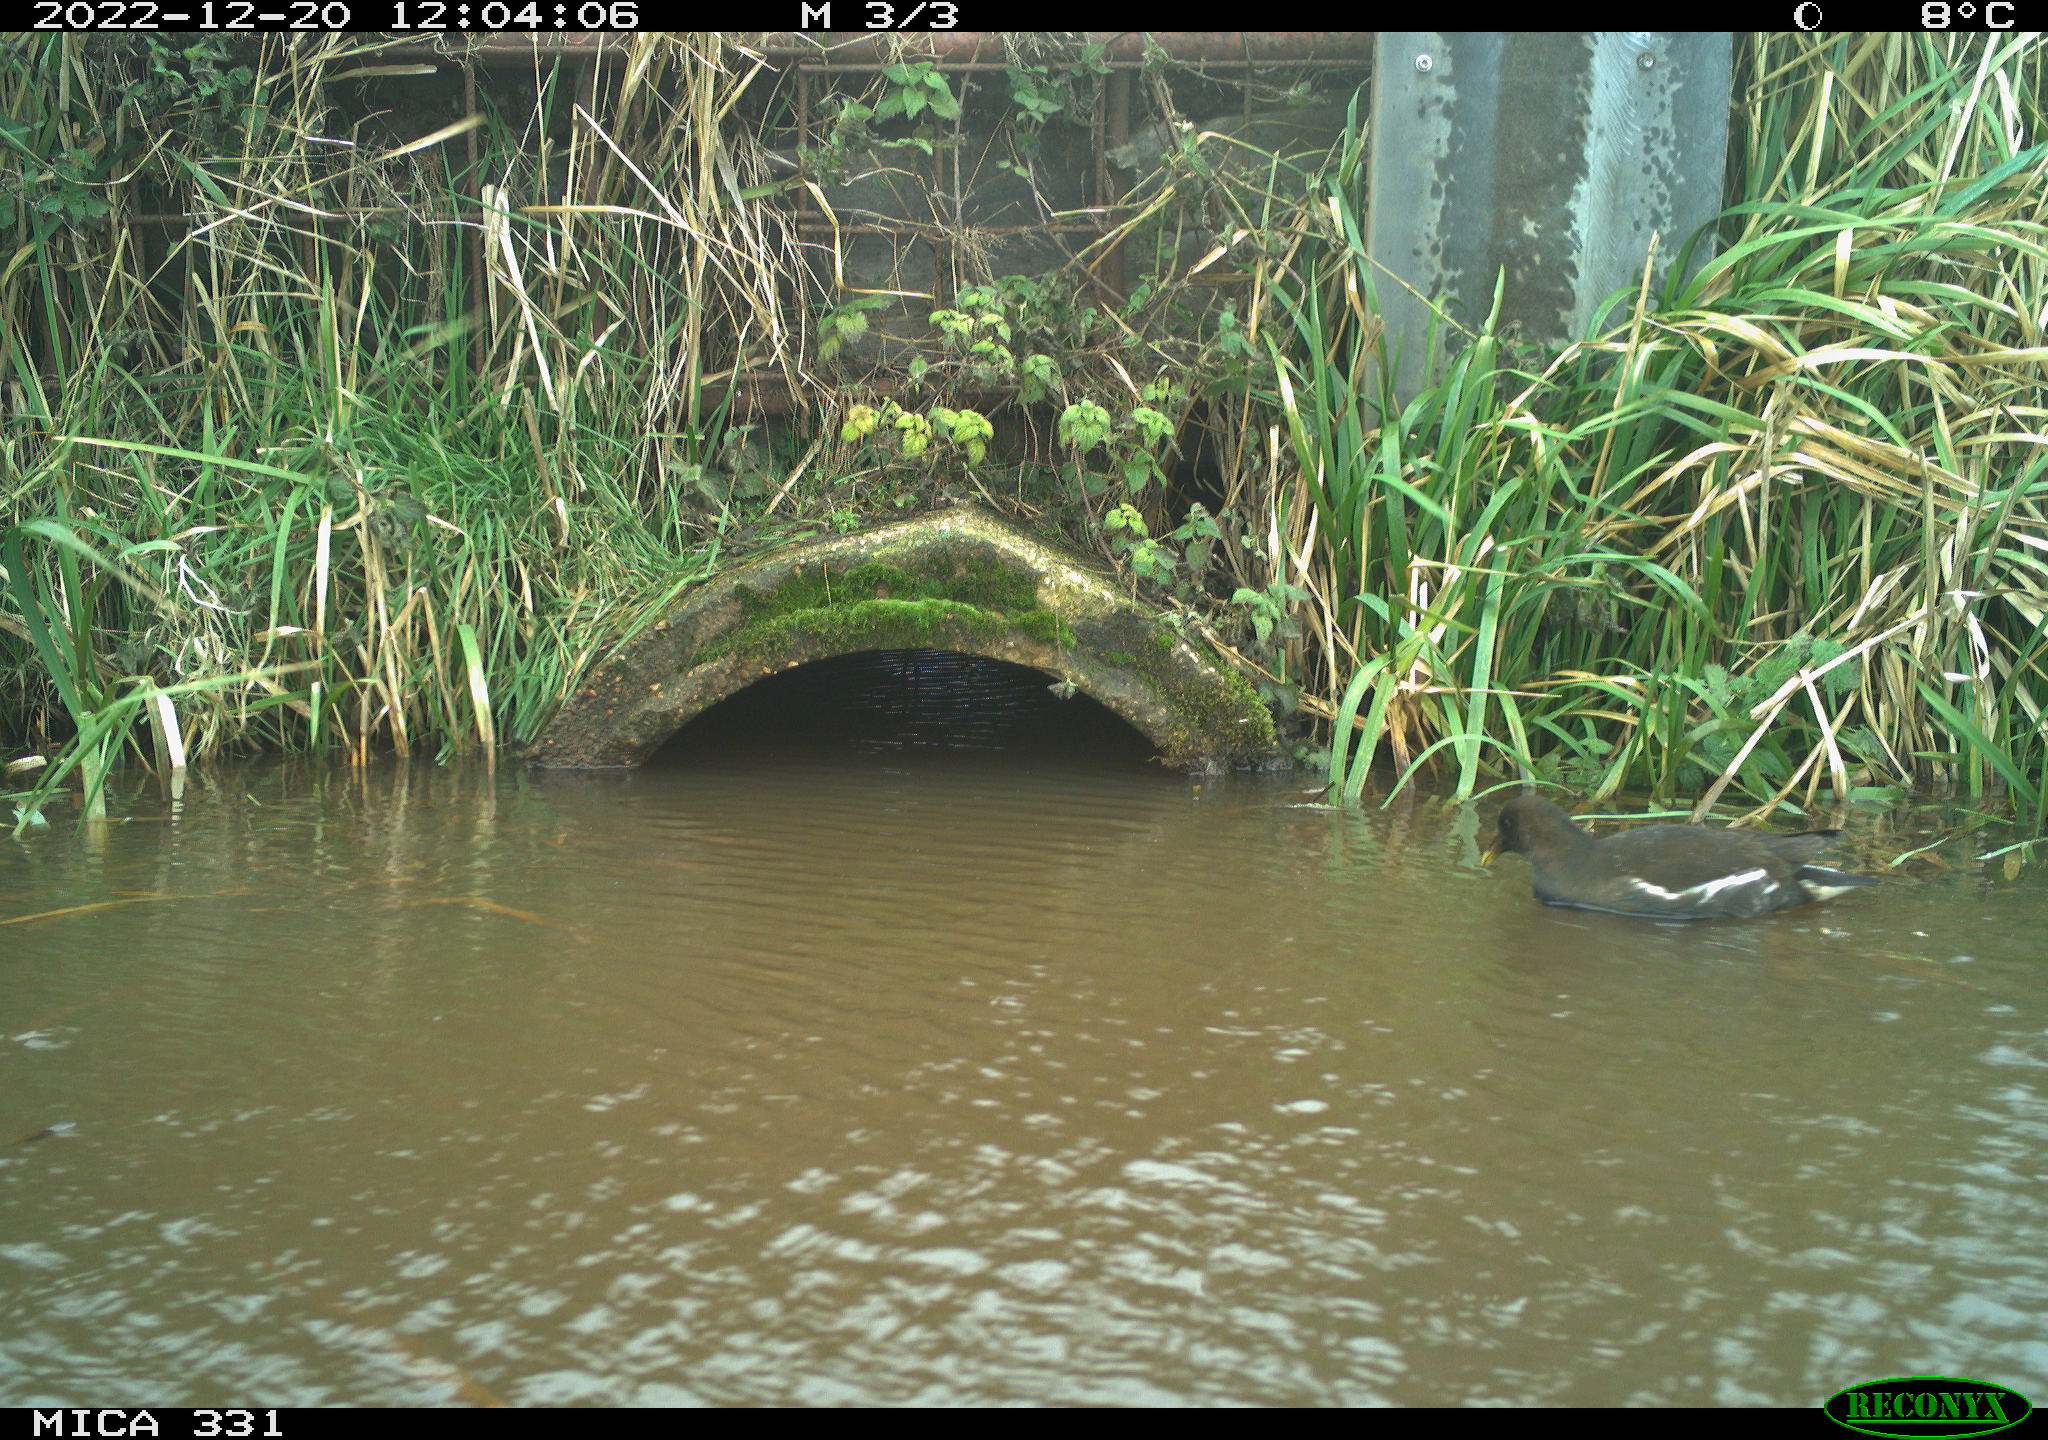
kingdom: Animalia
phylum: Chordata
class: Aves
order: Gruiformes
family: Rallidae
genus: Gallinula
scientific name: Gallinula chloropus
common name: Common moorhen
